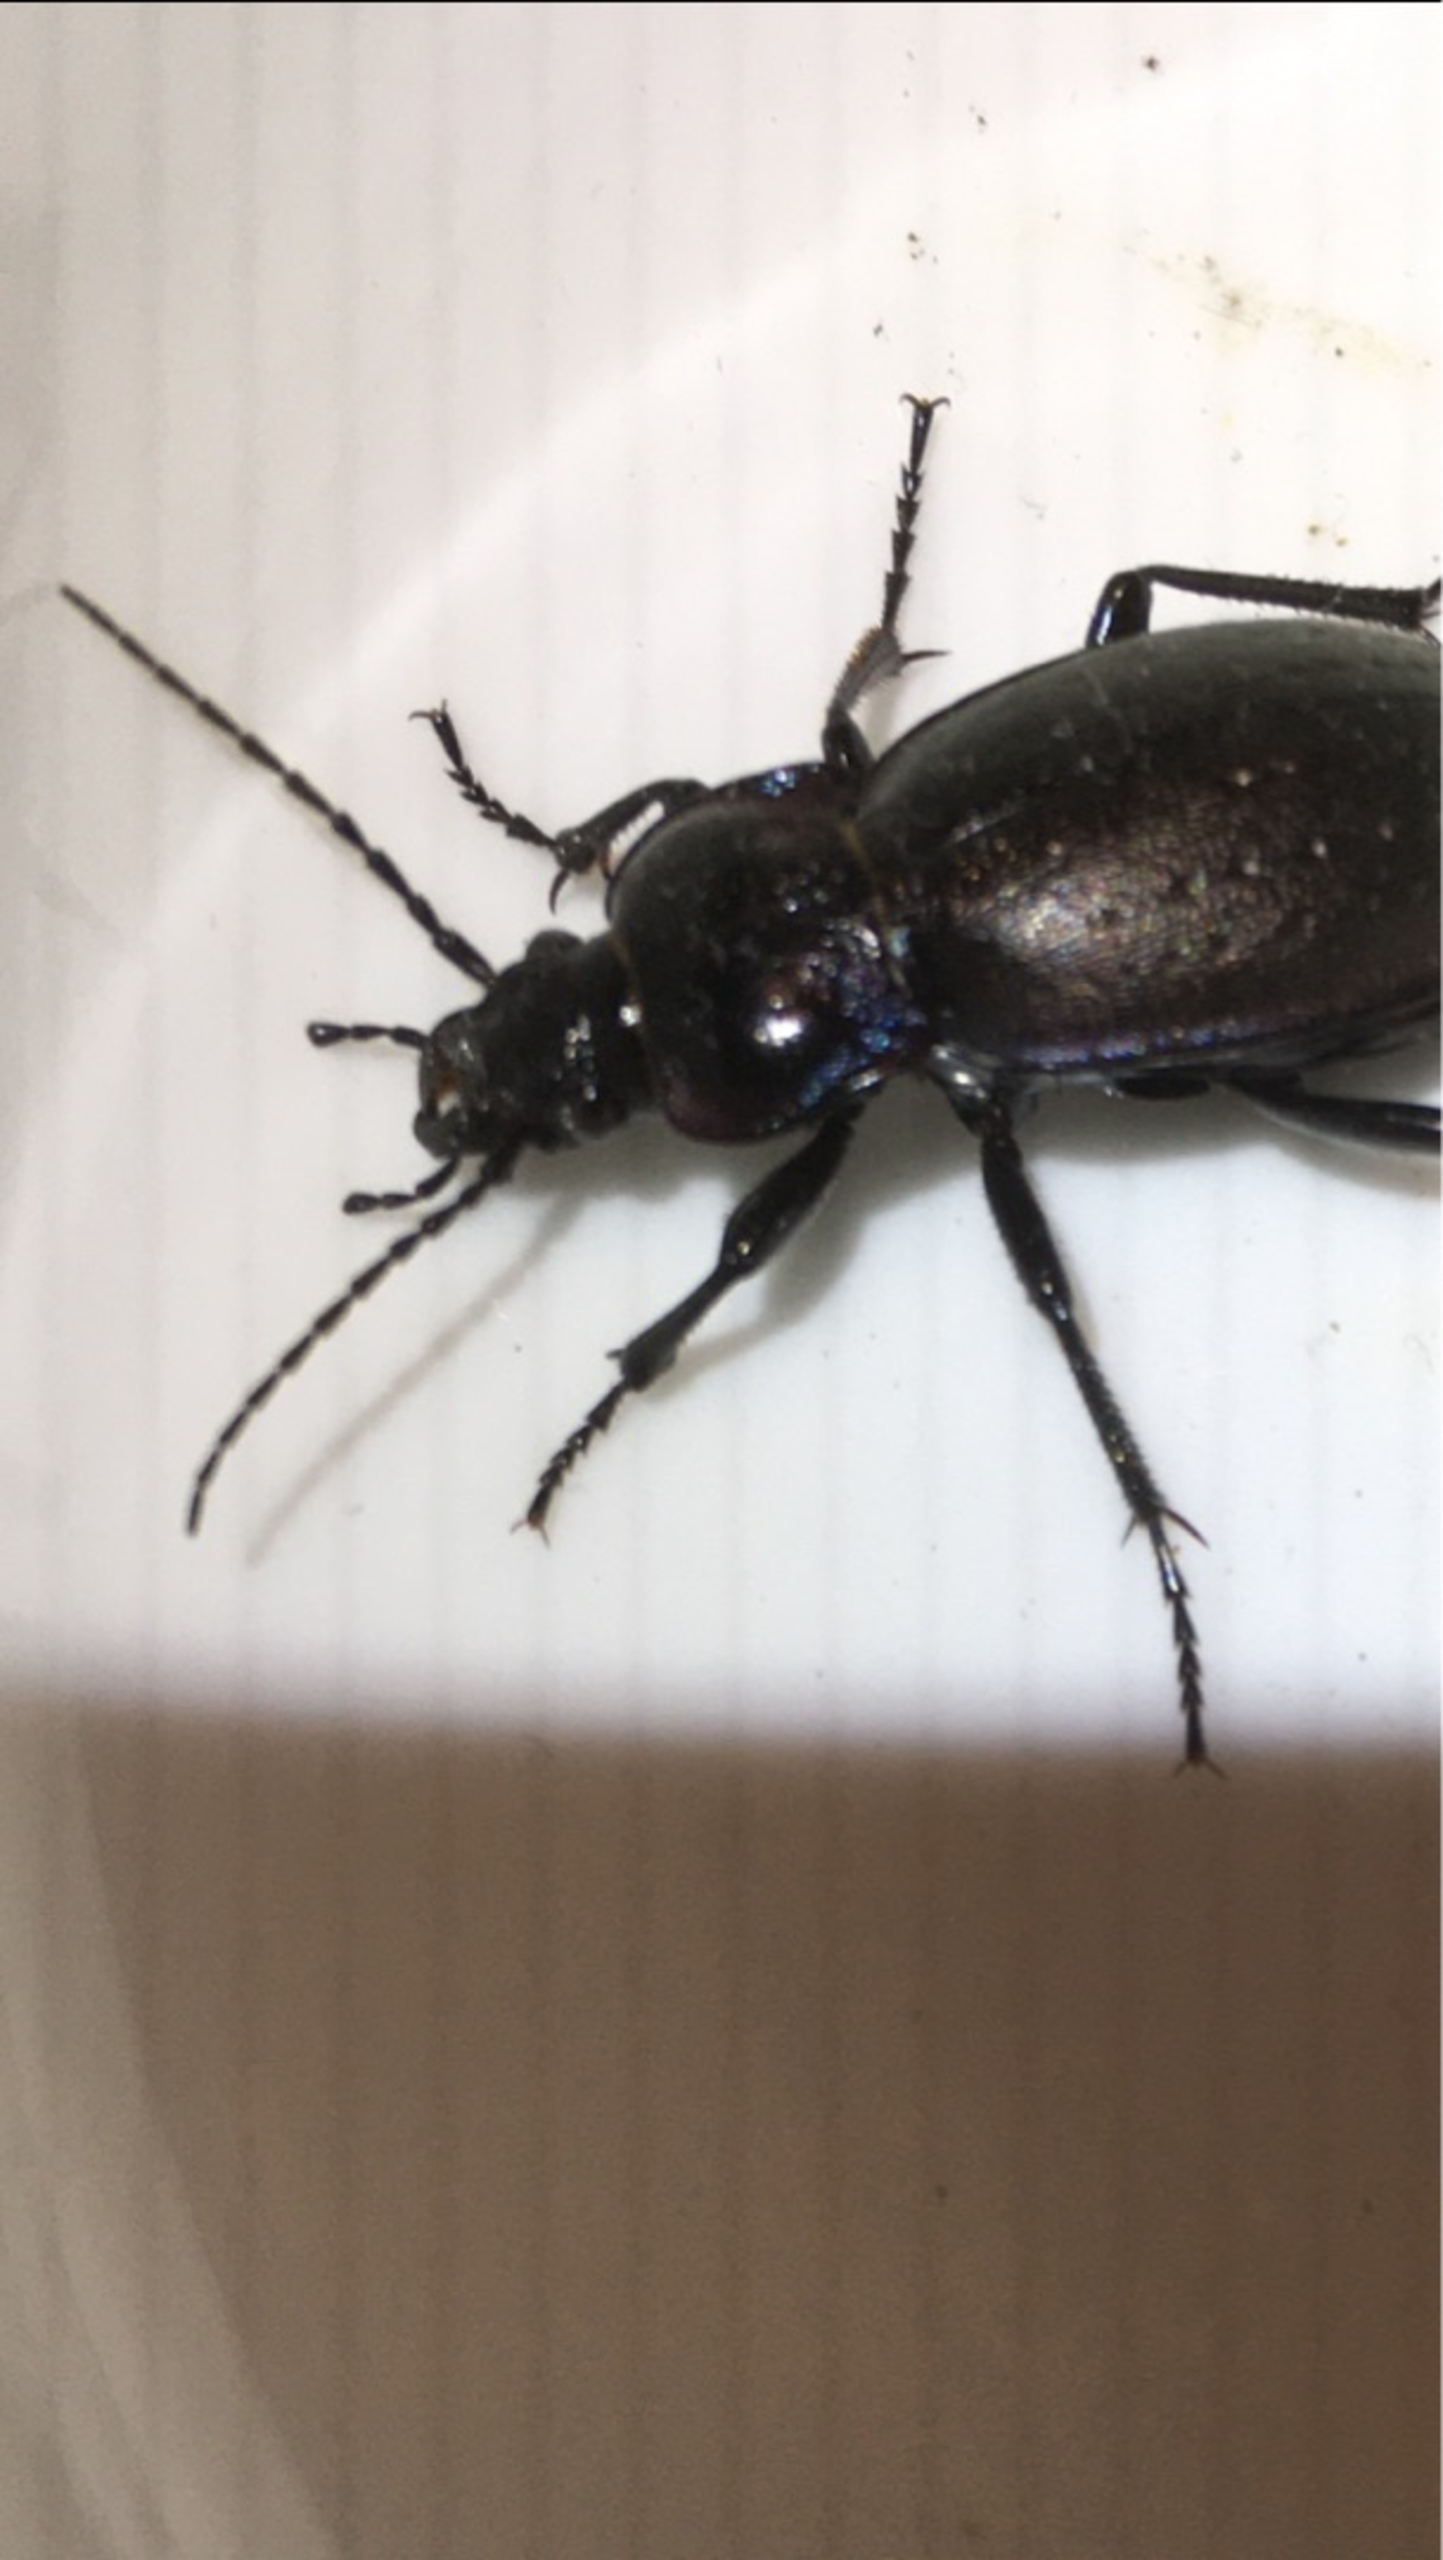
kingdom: Animalia
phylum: Arthropoda
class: Insecta
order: Coleoptera
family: Carabidae
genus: Carabus
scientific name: Carabus nemoralis
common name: Kratløber
